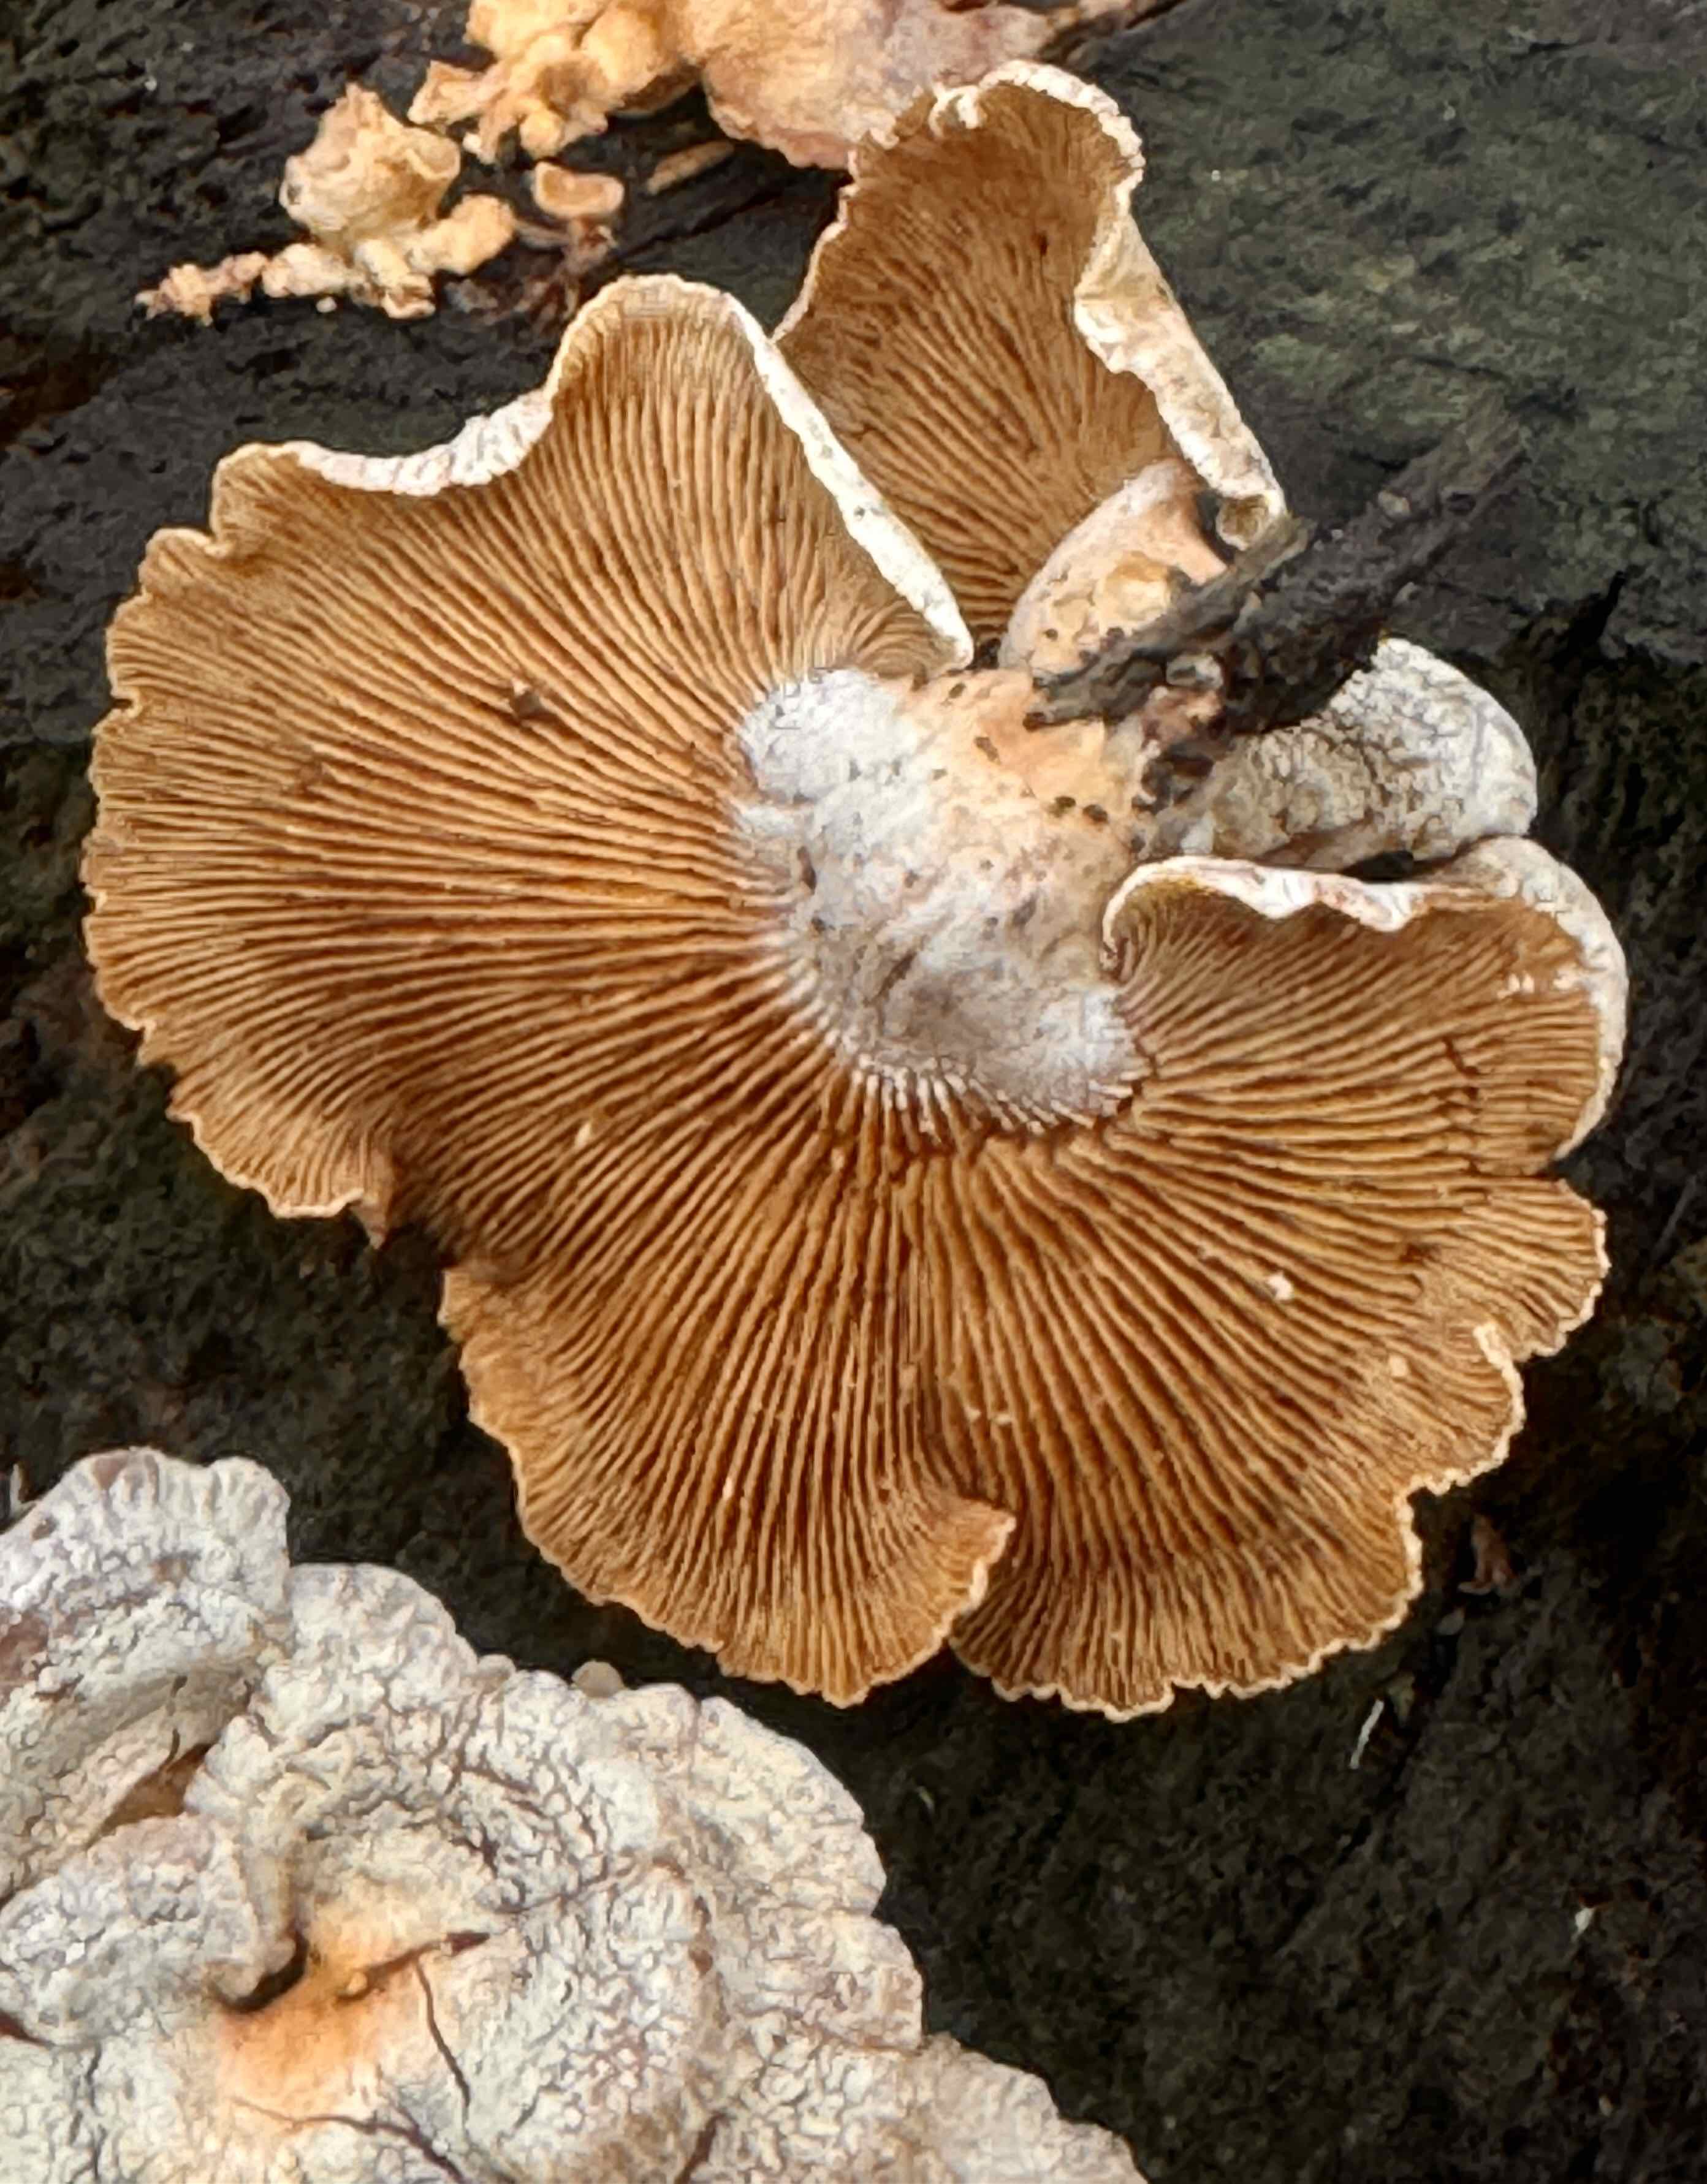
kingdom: Fungi
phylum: Basidiomycota
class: Agaricomycetes
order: Agaricales
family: Mycenaceae
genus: Panellus
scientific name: Panellus stipticus
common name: kliddet epaulethat
